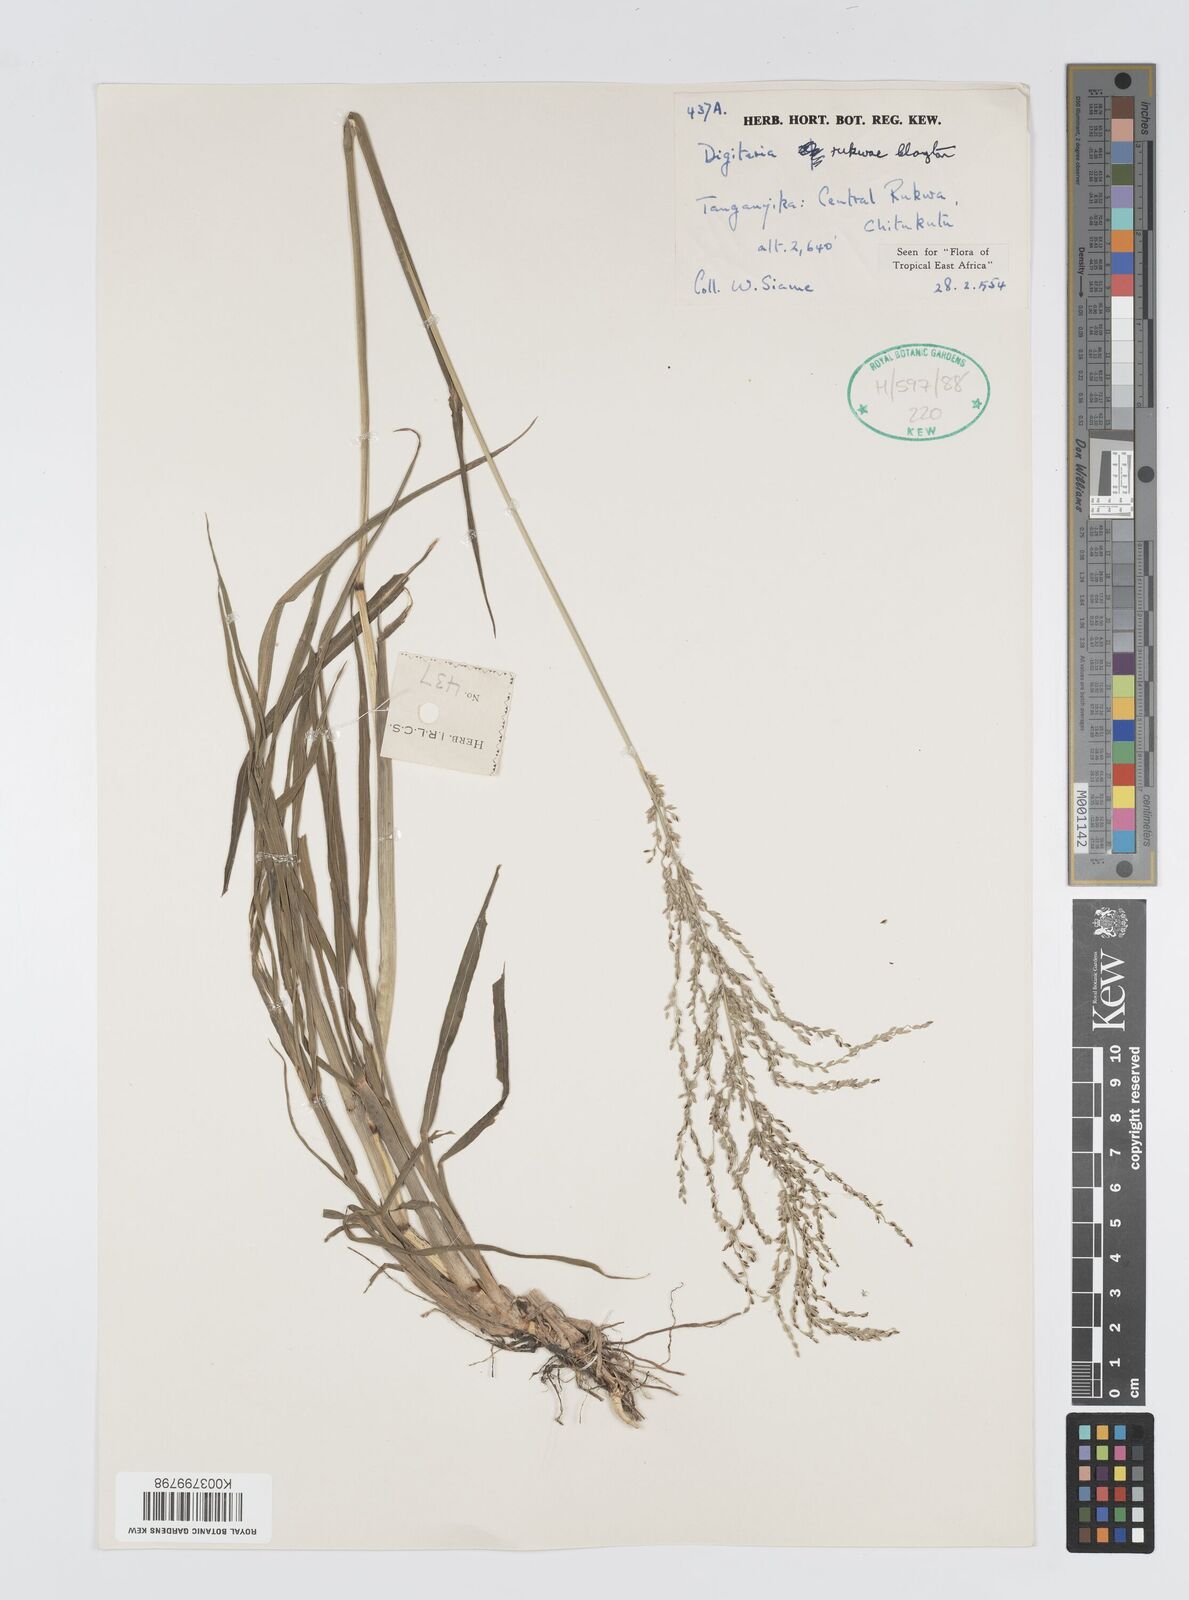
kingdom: Plantae
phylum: Tracheophyta
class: Liliopsida
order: Poales
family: Poaceae
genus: Digitaria
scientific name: Digitaria rukwae
